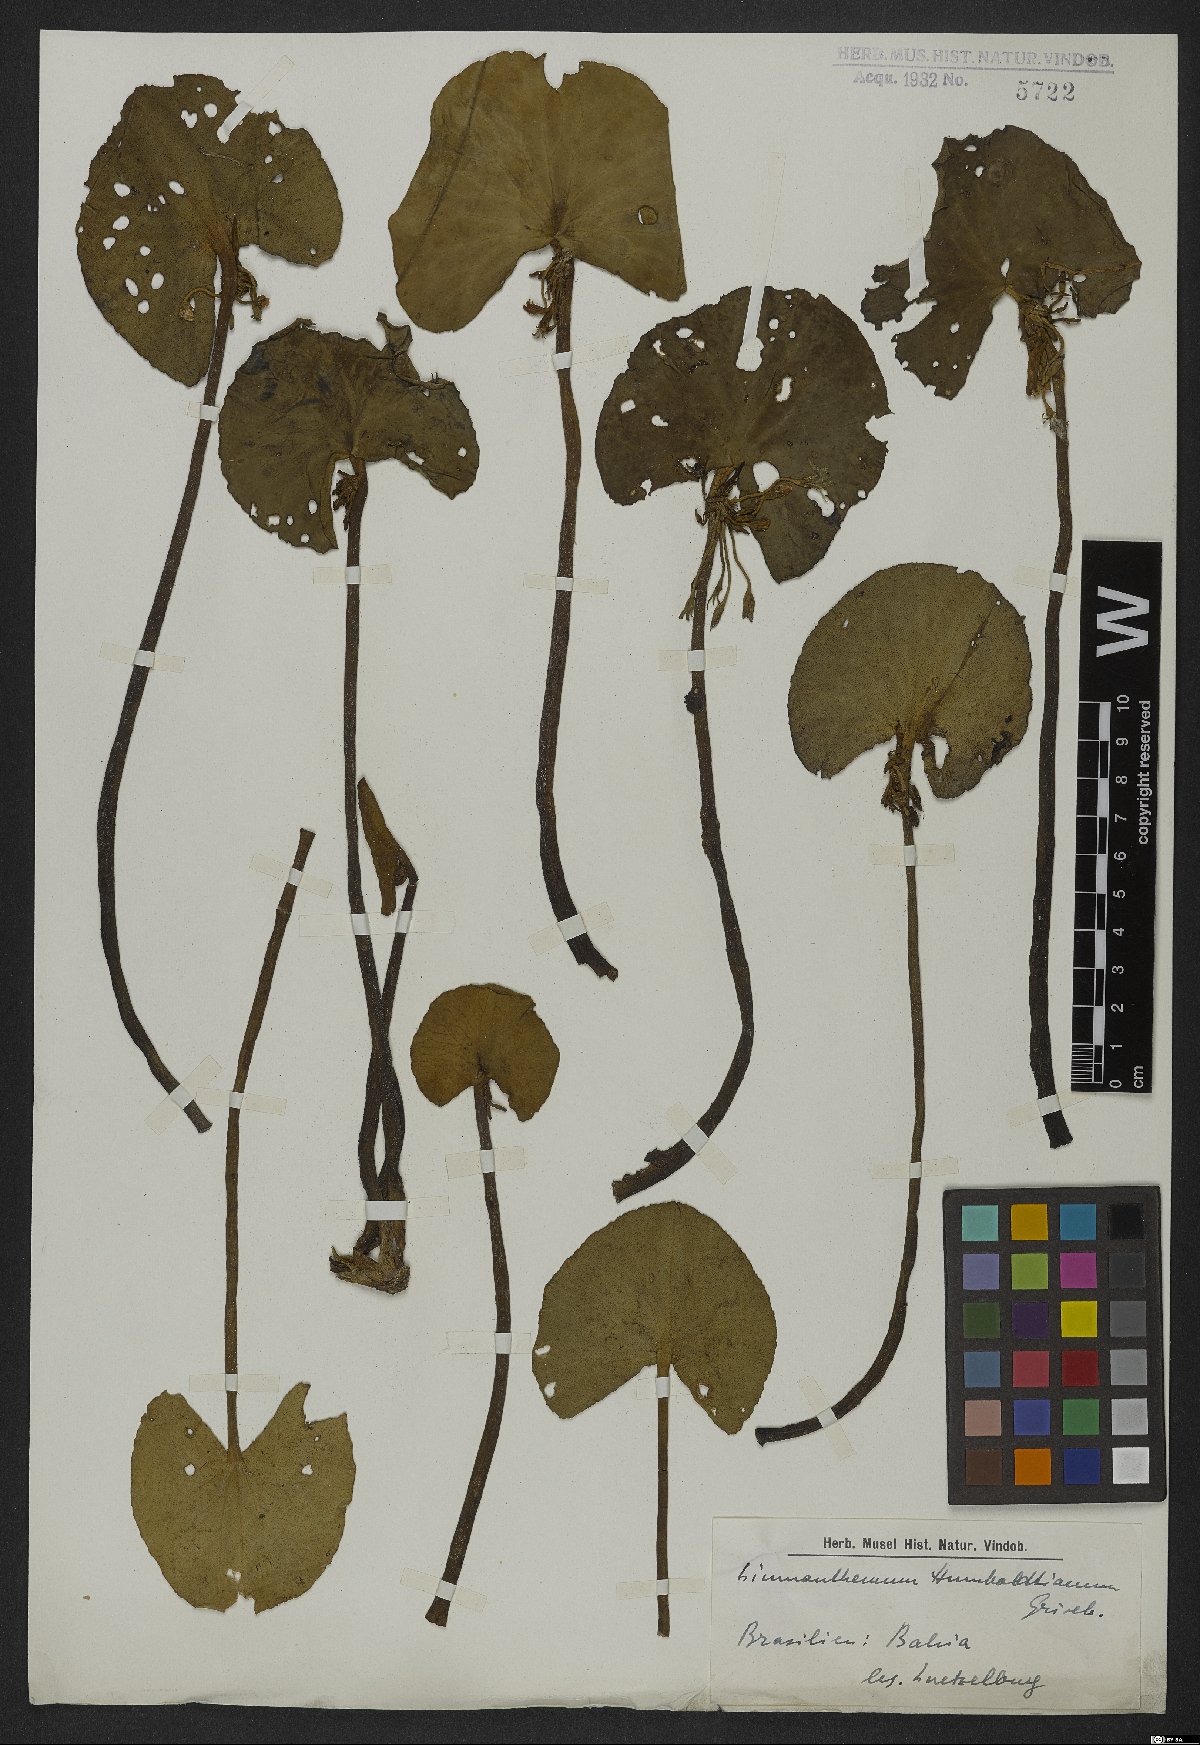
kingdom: Plantae
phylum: Tracheophyta
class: Magnoliopsida
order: Asterales
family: Menyanthaceae
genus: Nymphoides
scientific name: Nymphoides humboldtiana
